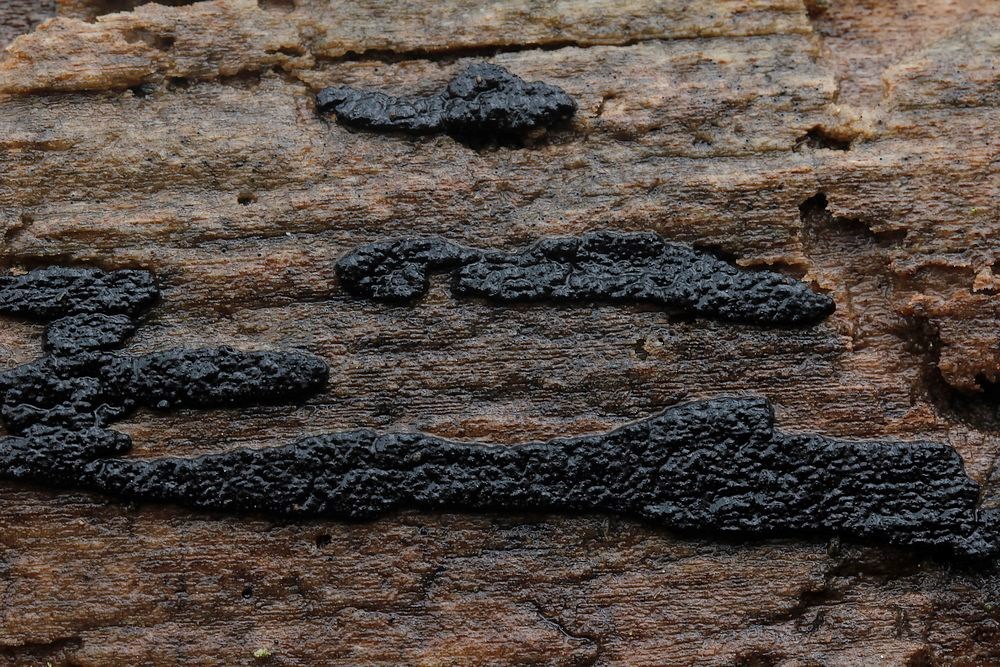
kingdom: Fungi
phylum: Ascomycota
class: Sordariomycetes
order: Xylariales
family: Xylariaceae
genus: Nemania
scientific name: Nemania chestersii
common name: stribesporet kuldyne
